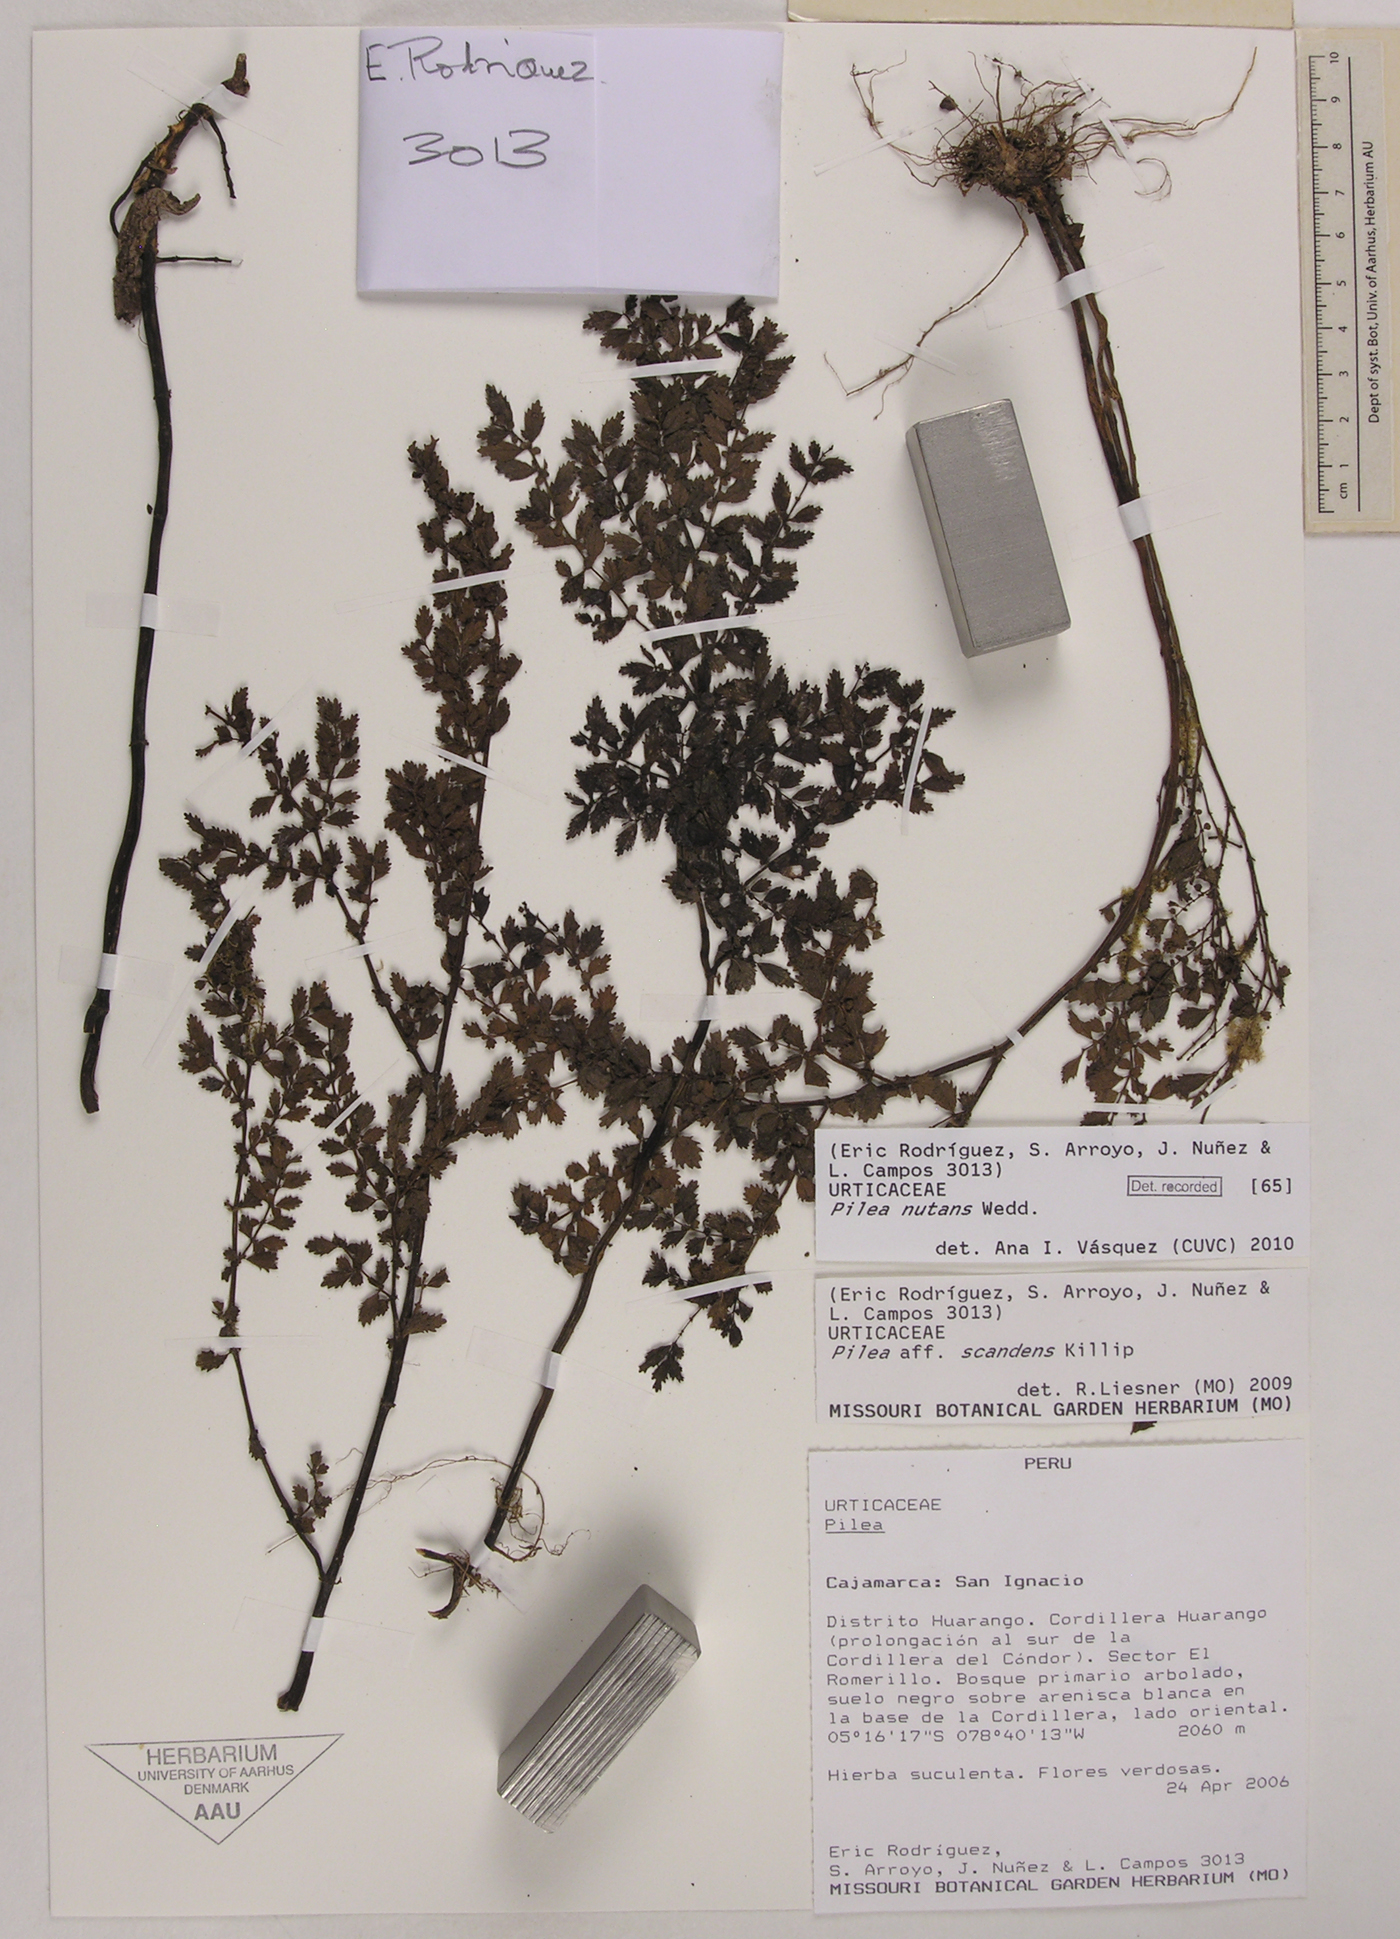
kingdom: Plantae
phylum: Tracheophyta
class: Magnoliopsida
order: Rosales
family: Urticaceae
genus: Pilea
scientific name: Pilea nutans
